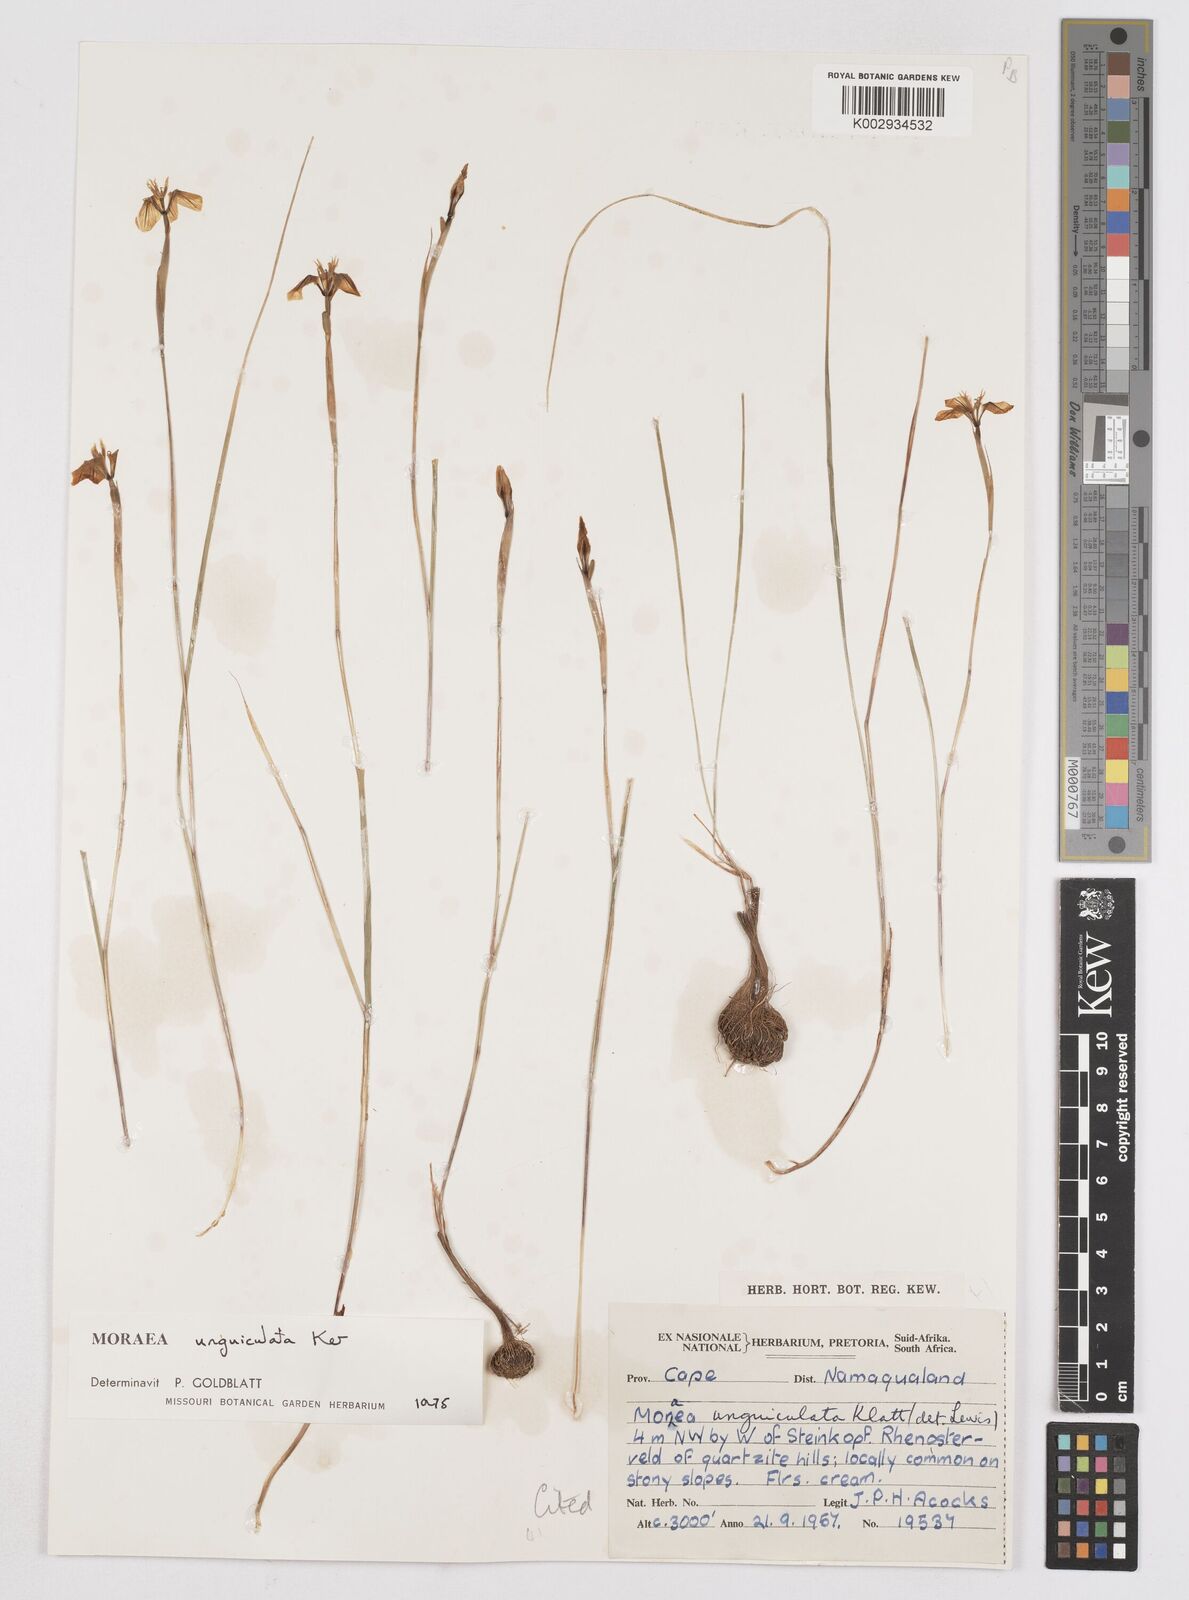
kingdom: Plantae
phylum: Tracheophyta
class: Liliopsida
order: Asparagales
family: Iridaceae
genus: Moraea
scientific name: Moraea unguiculata
